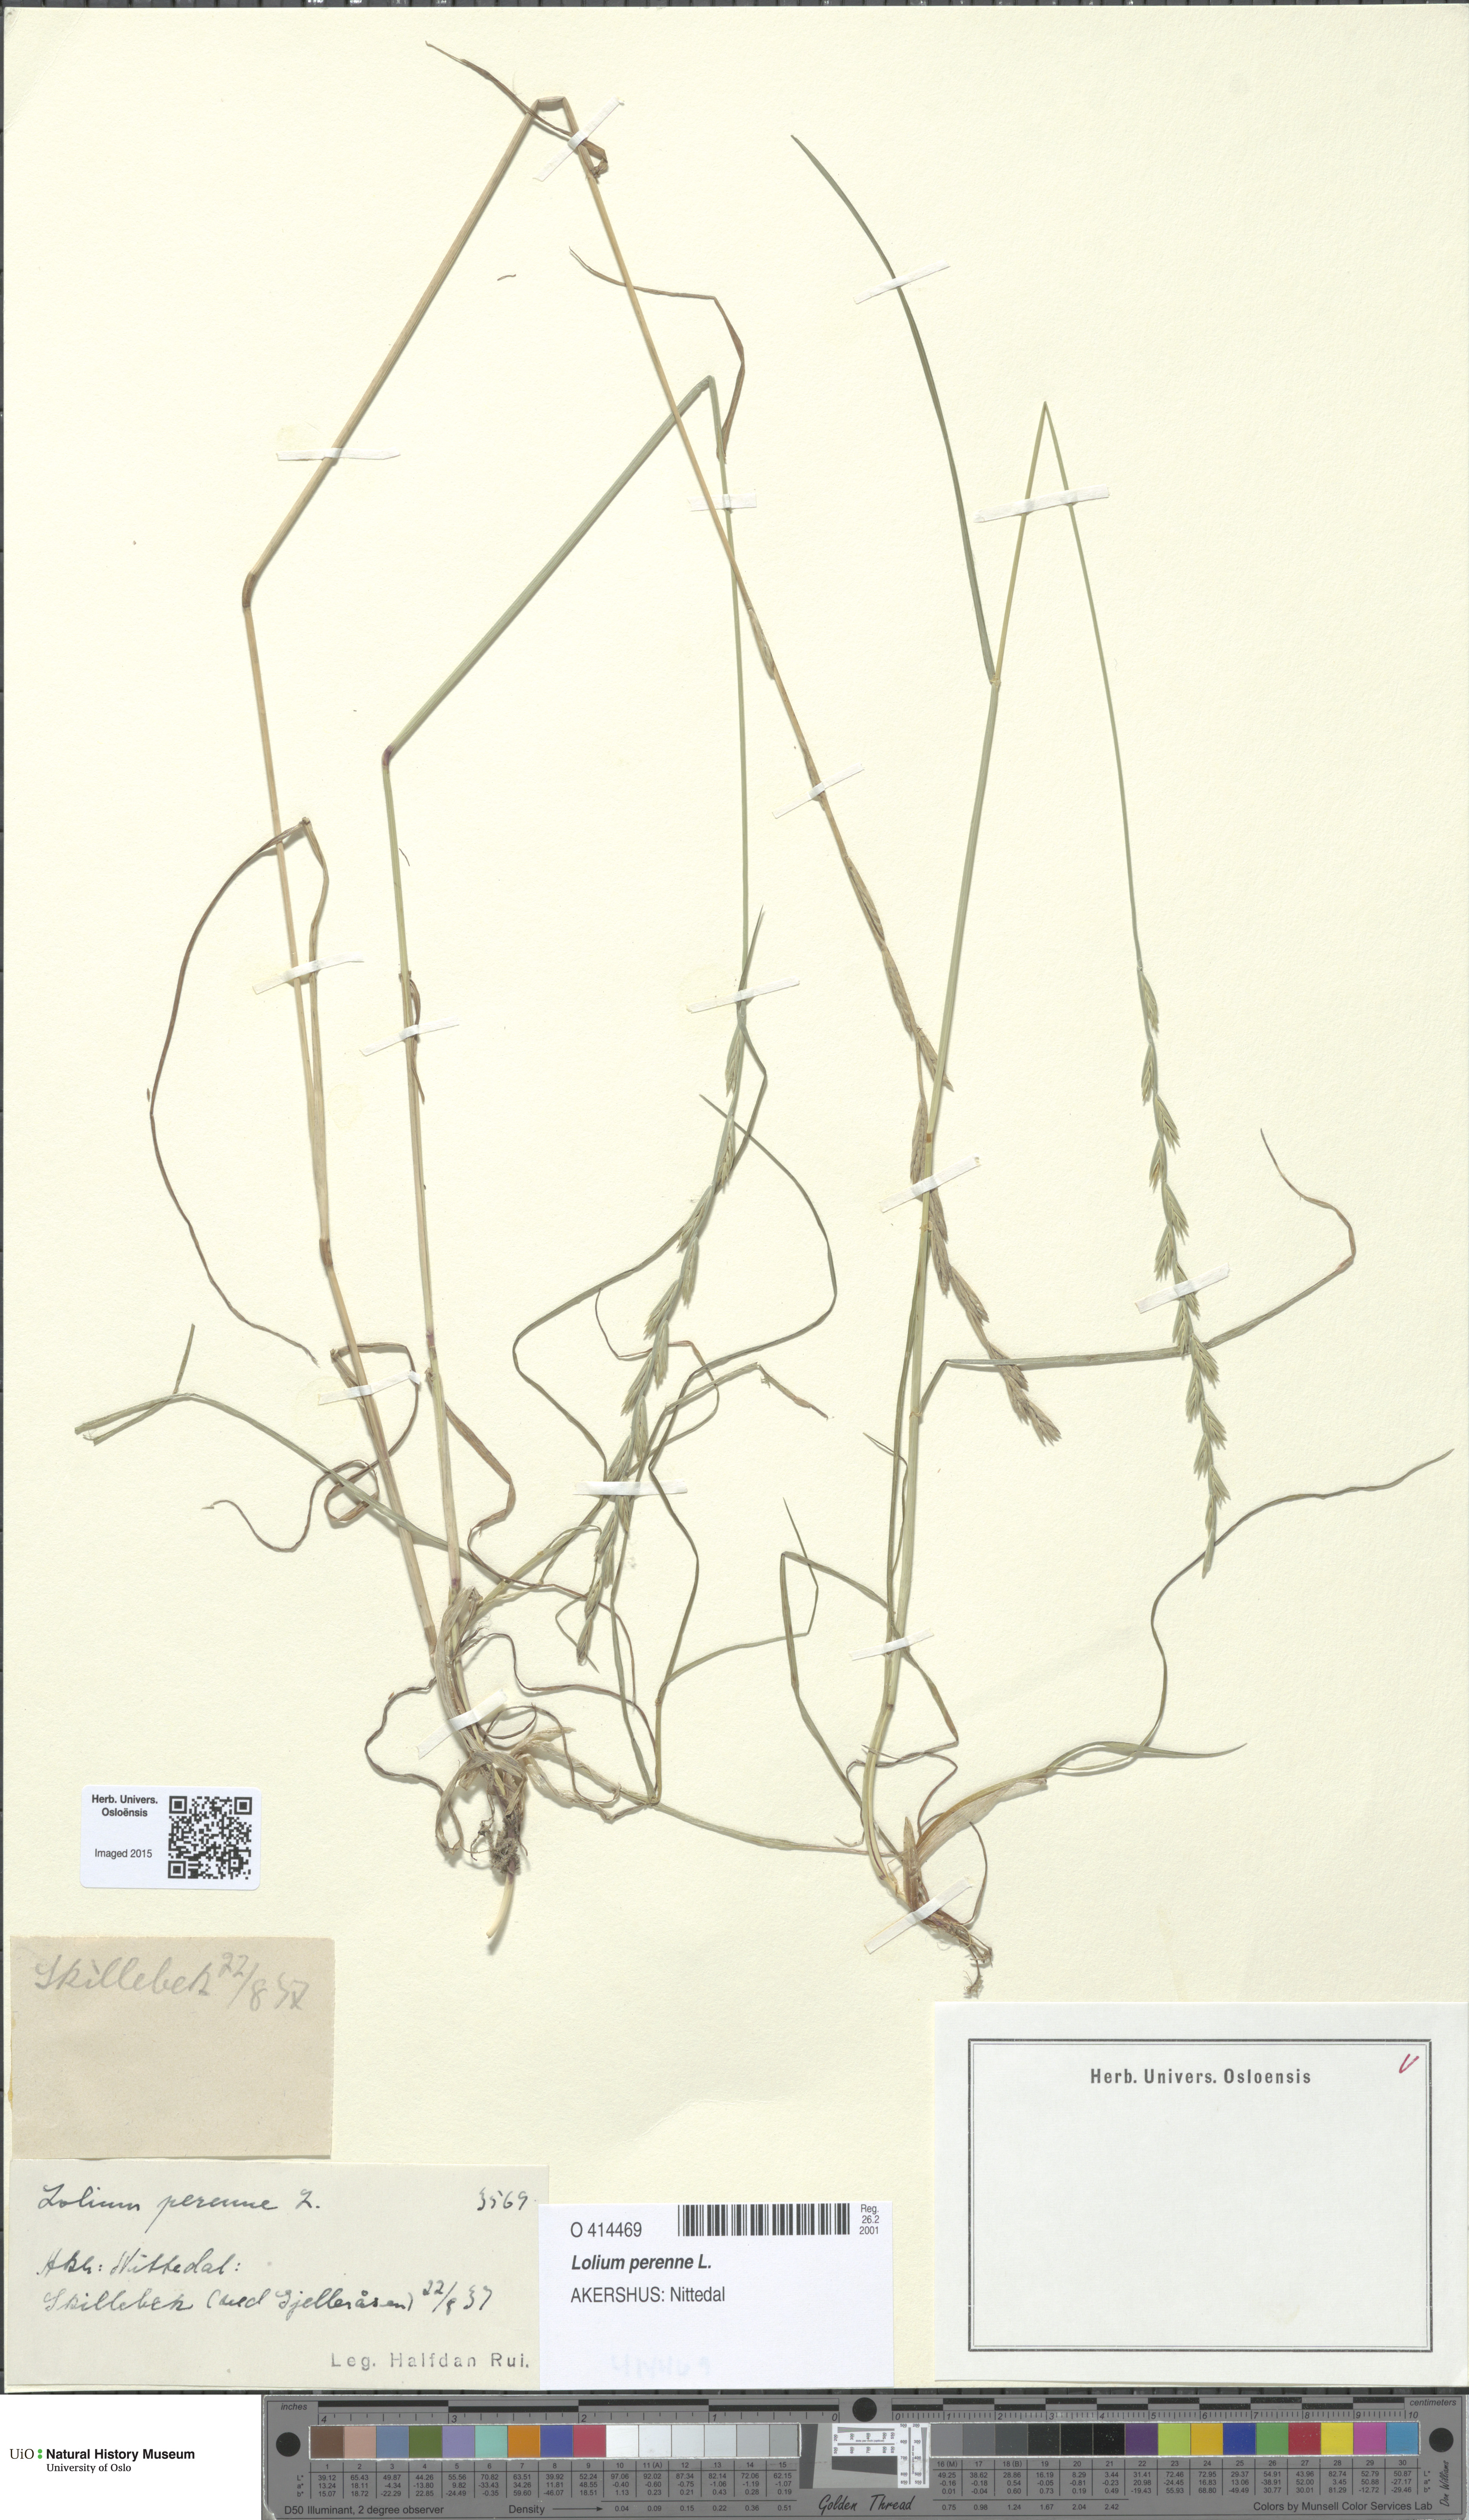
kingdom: Plantae
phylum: Tracheophyta
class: Liliopsida
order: Poales
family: Poaceae
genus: Lolium
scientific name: Lolium perenne
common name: Perennial ryegrass
